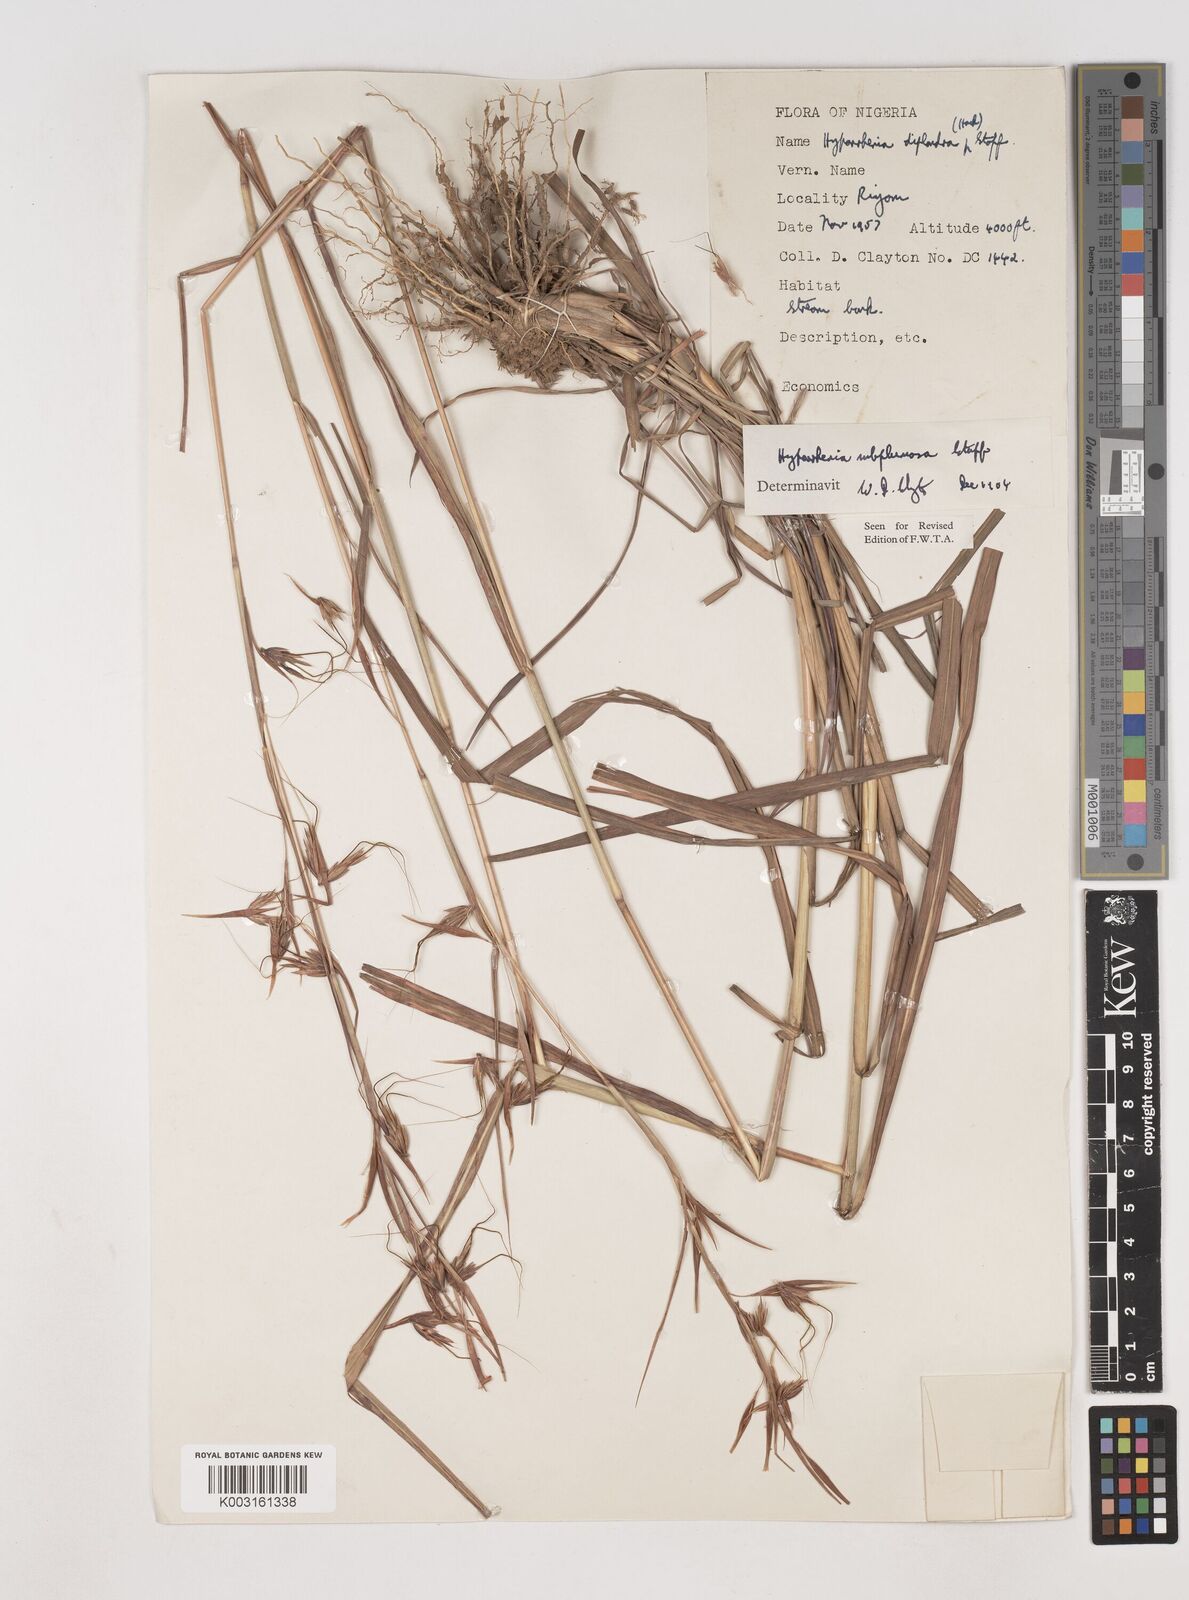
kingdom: Plantae
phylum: Tracheophyta
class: Liliopsida
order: Poales
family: Poaceae
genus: Hyparrhenia
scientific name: Hyparrhenia subplumosa
